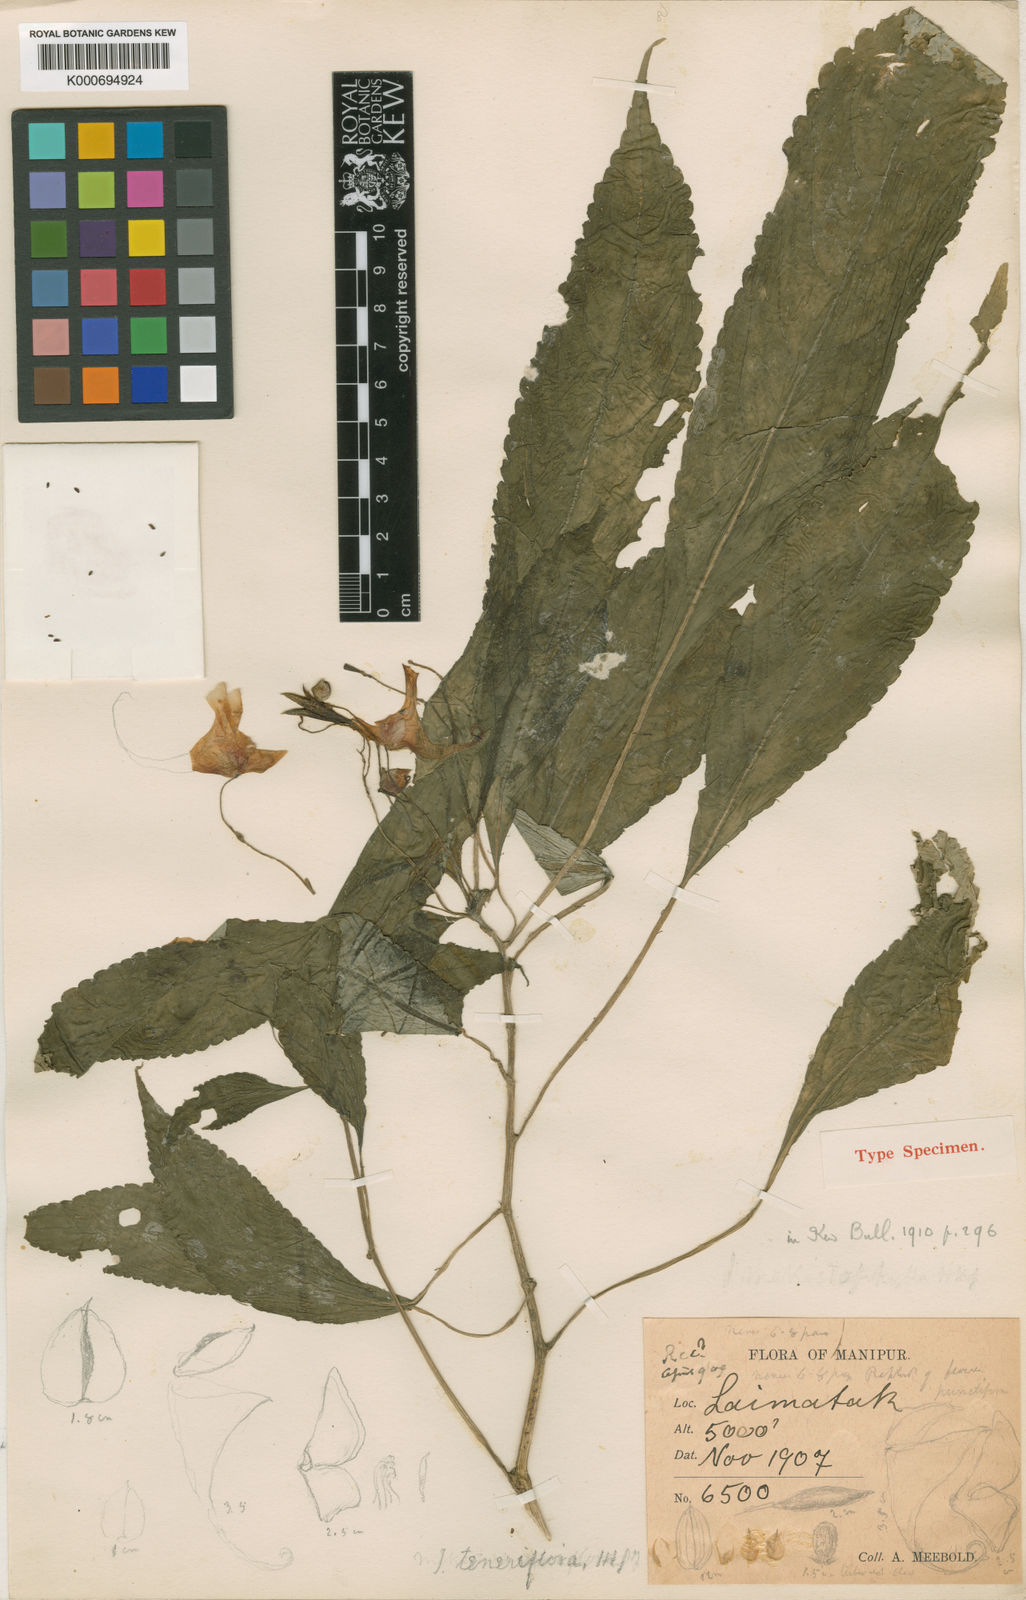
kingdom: Plantae
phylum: Tracheophyta
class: Magnoliopsida
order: Ericales
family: Balsaminaceae
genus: Impatiens
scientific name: Impatiens teneriflora
